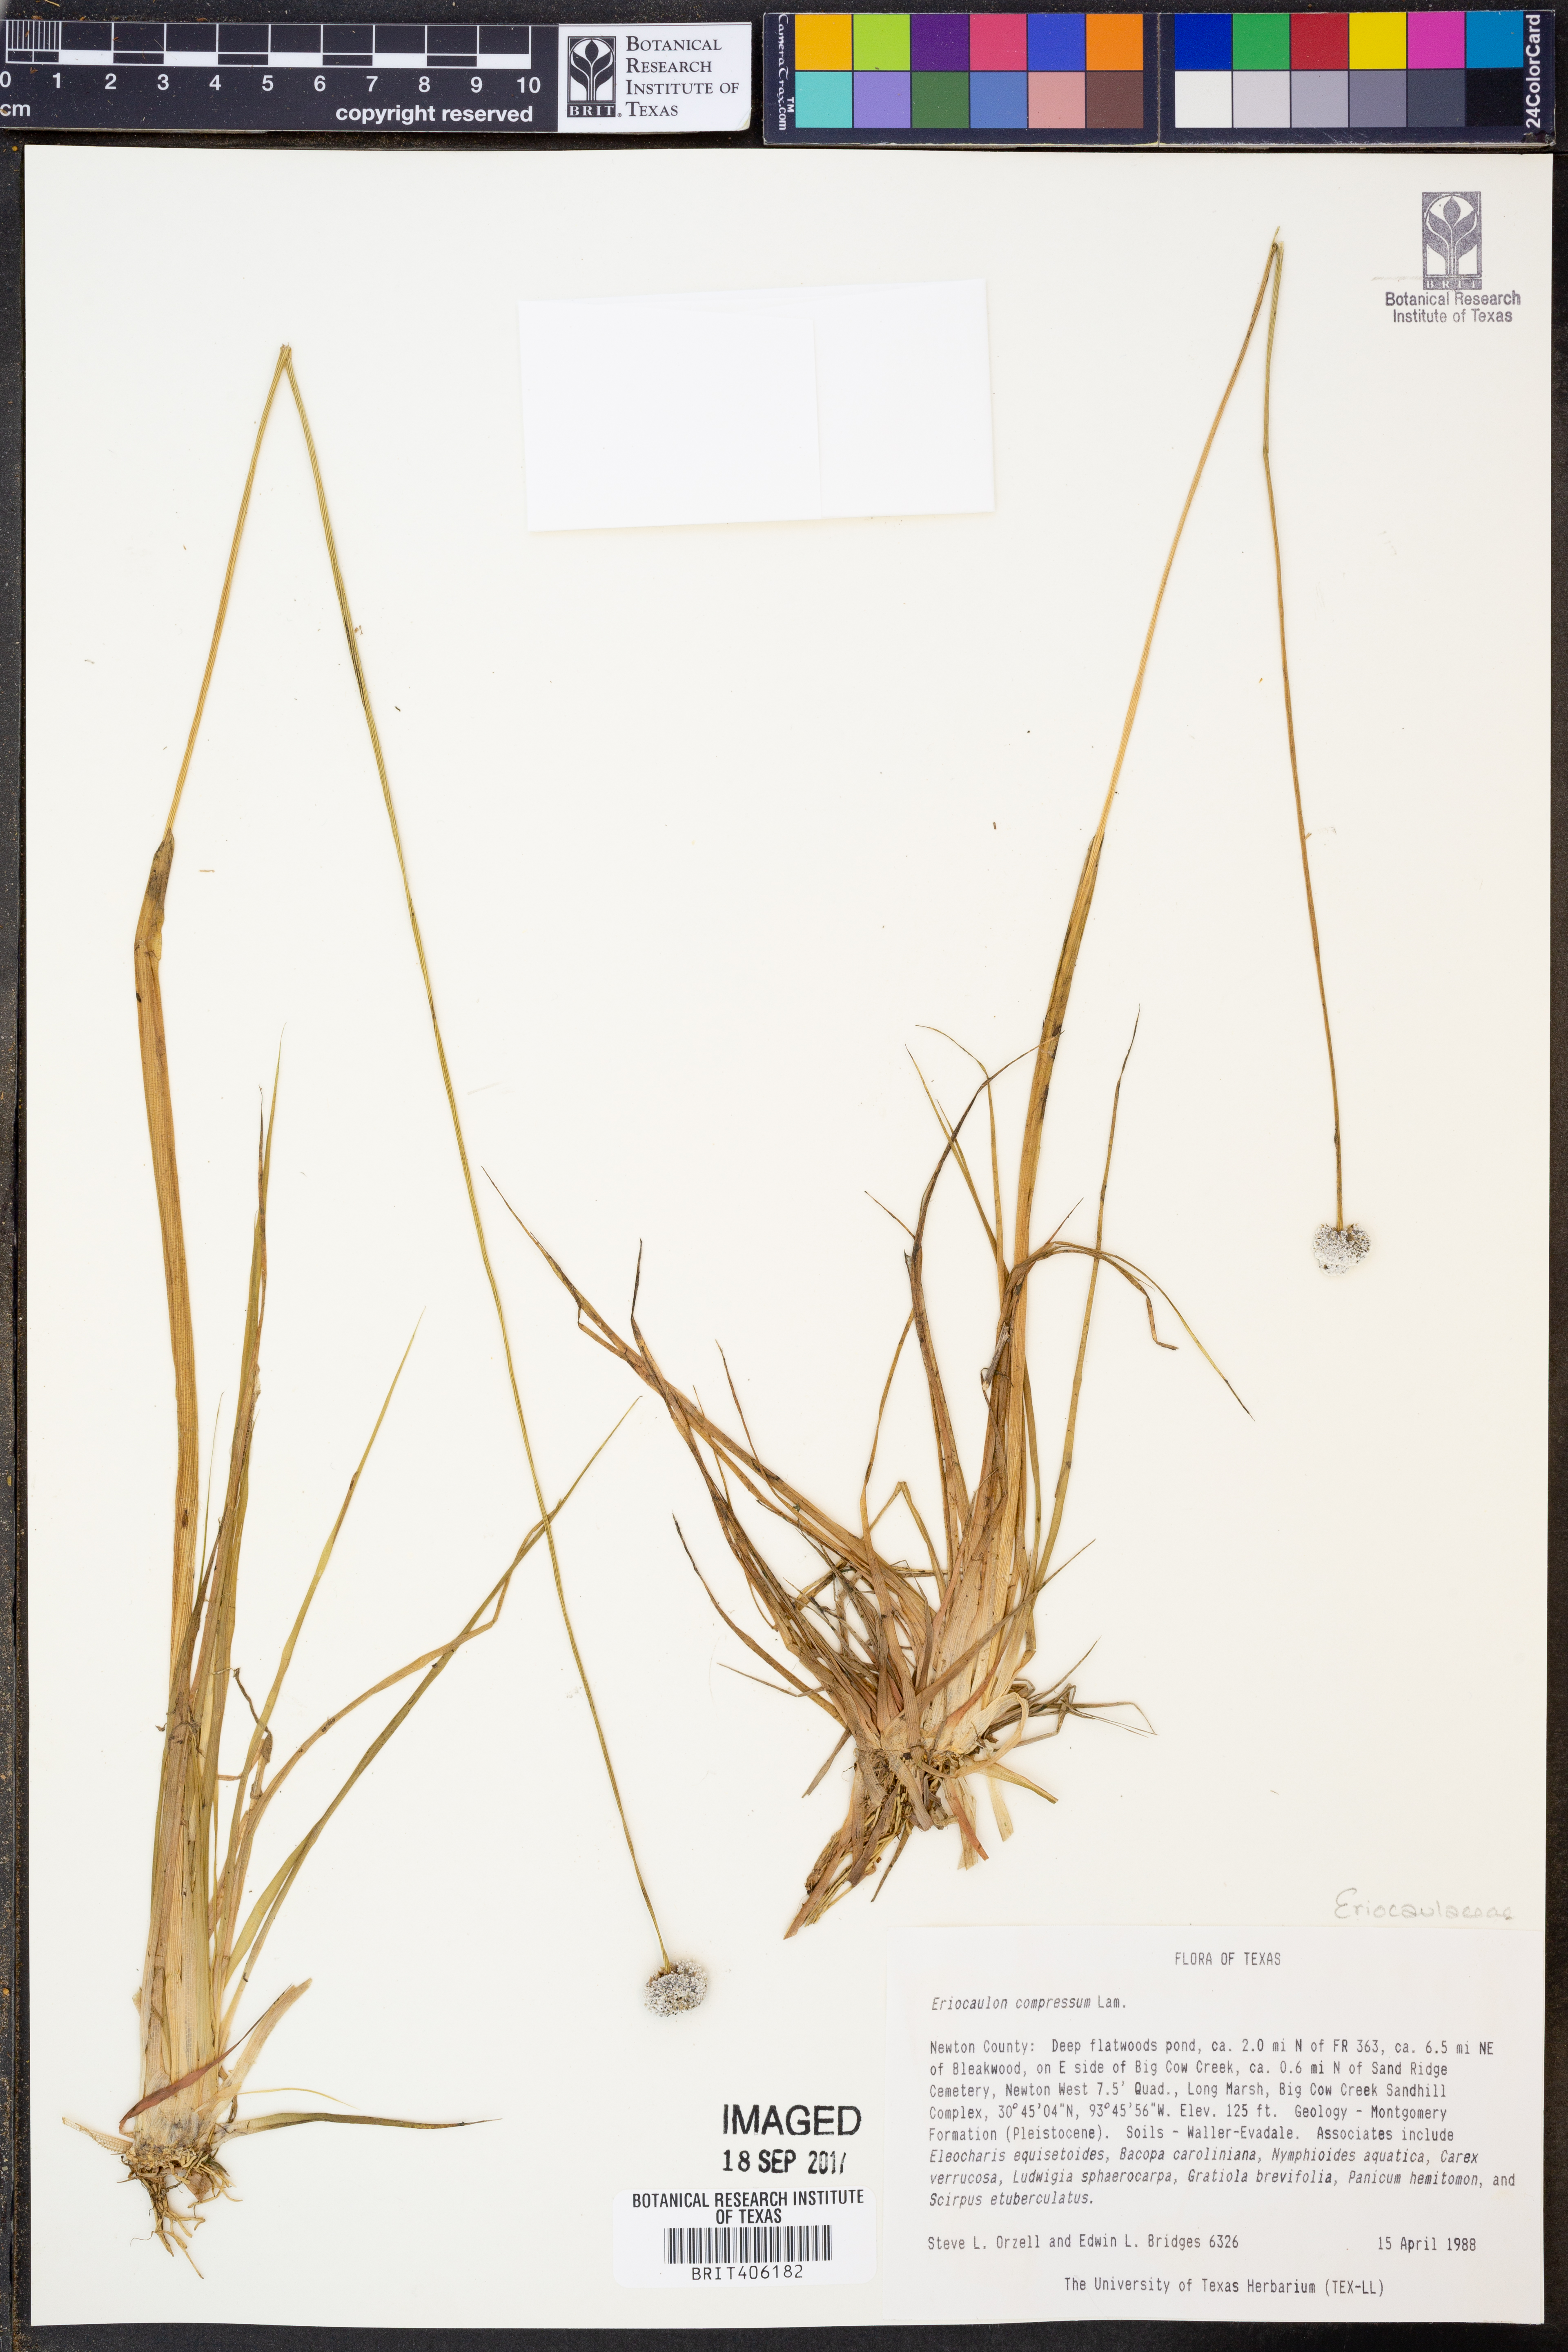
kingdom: Plantae
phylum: Tracheophyta
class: Liliopsida
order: Poales
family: Eriocaulaceae
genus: Eriocaulon
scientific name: Eriocaulon compressum
